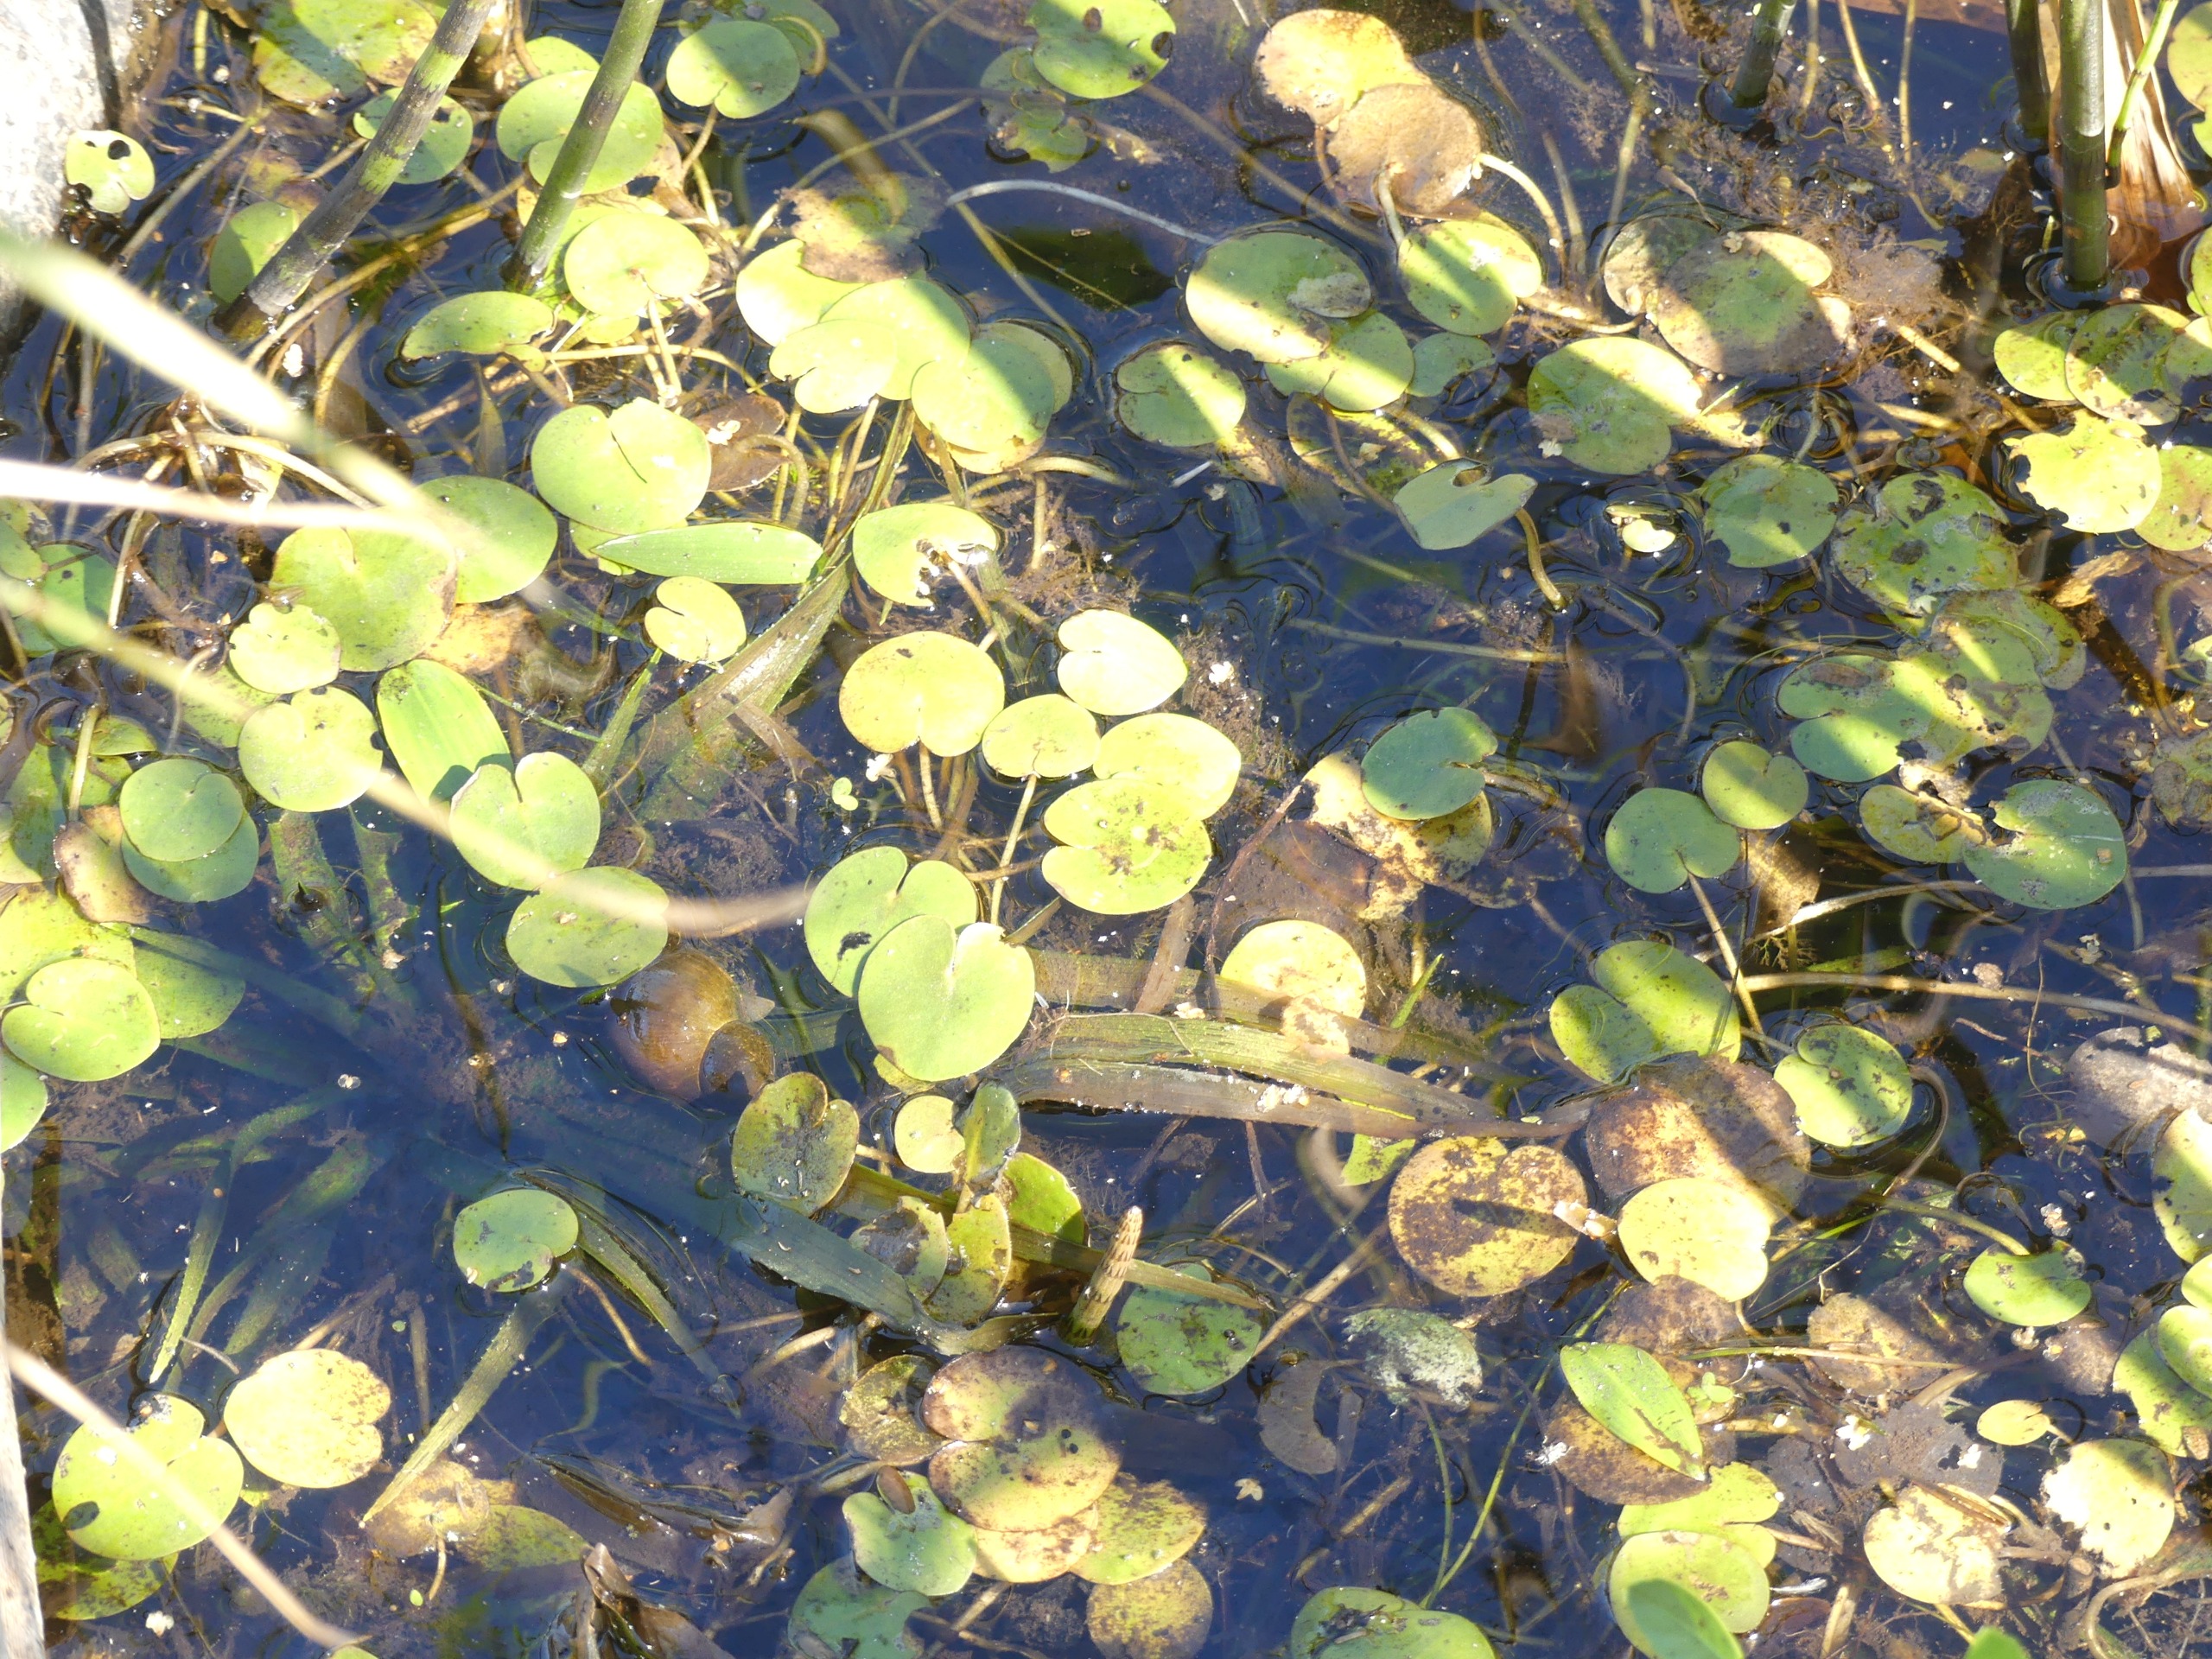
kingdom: Plantae
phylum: Tracheophyta
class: Liliopsida
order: Alismatales
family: Hydrocharitaceae
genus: Hydrocharis
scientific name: Hydrocharis morsus-ranae
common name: Frøbid
